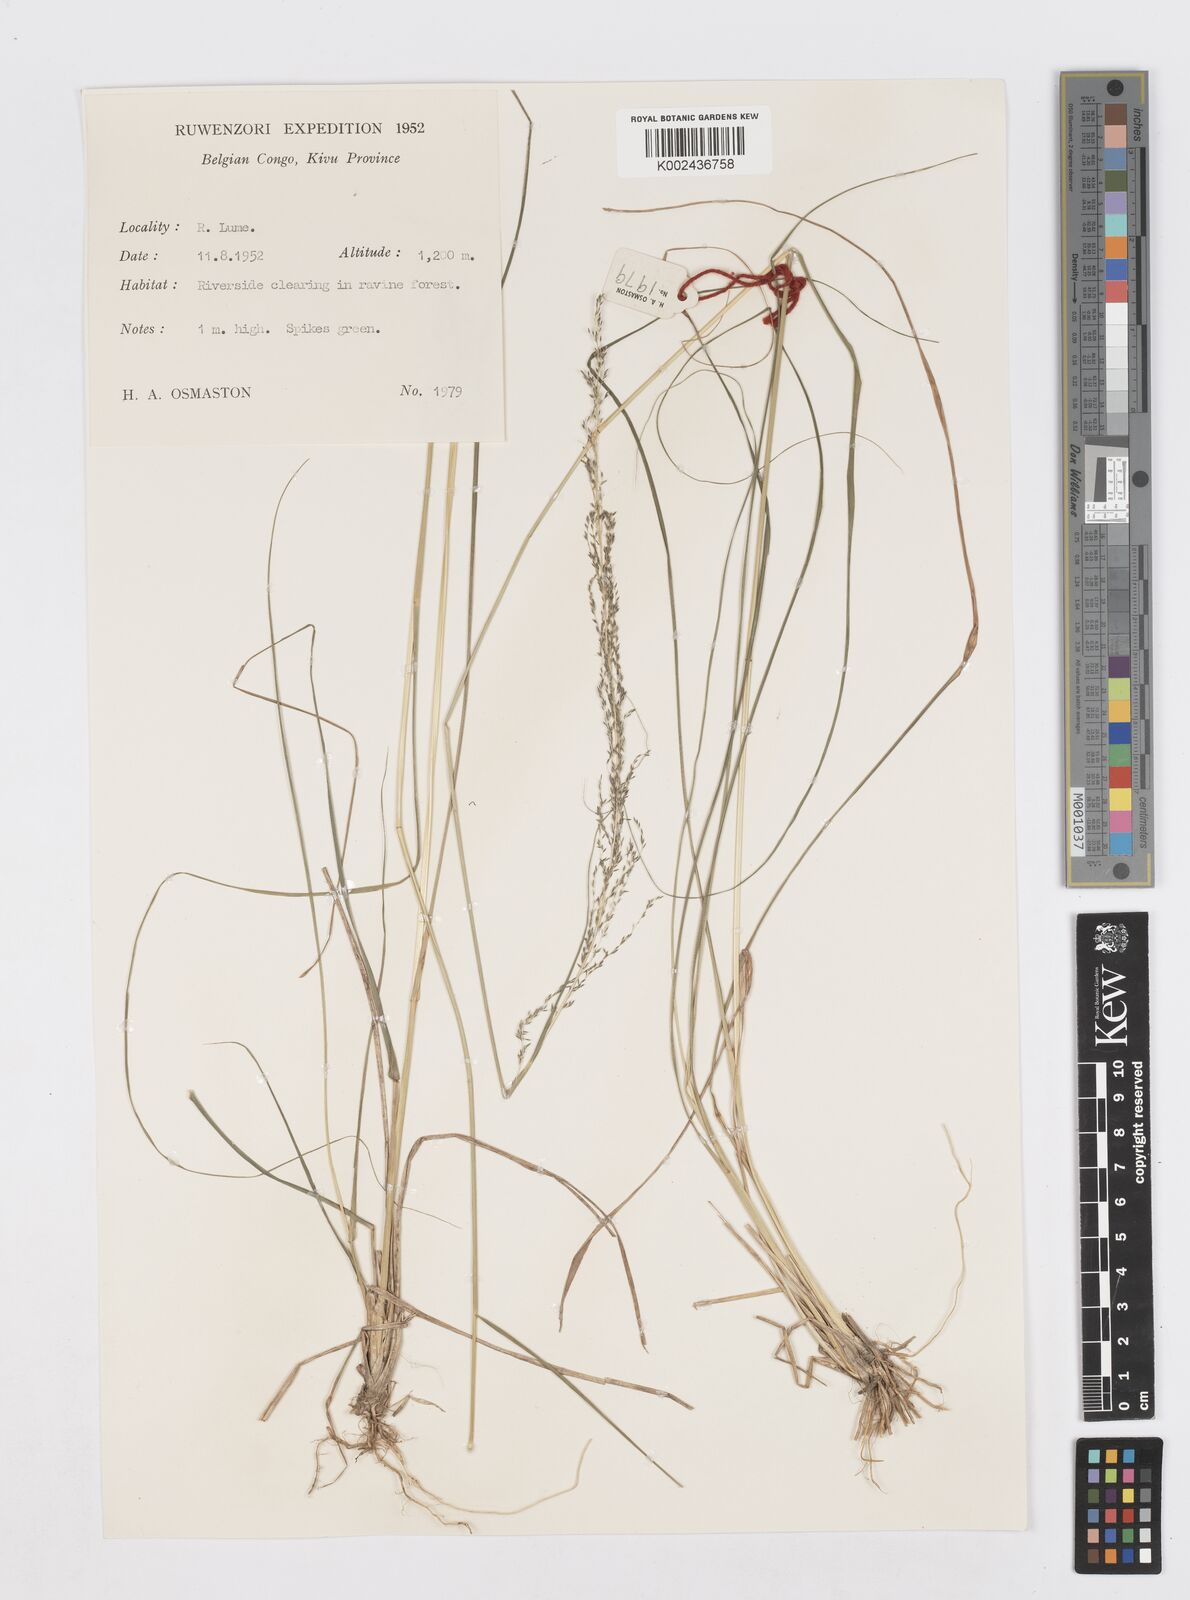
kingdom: Plantae
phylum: Tracheophyta
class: Liliopsida
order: Poales
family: Poaceae
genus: Sporobolus
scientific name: Sporobolus pyramidalis
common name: West indian dropseed
